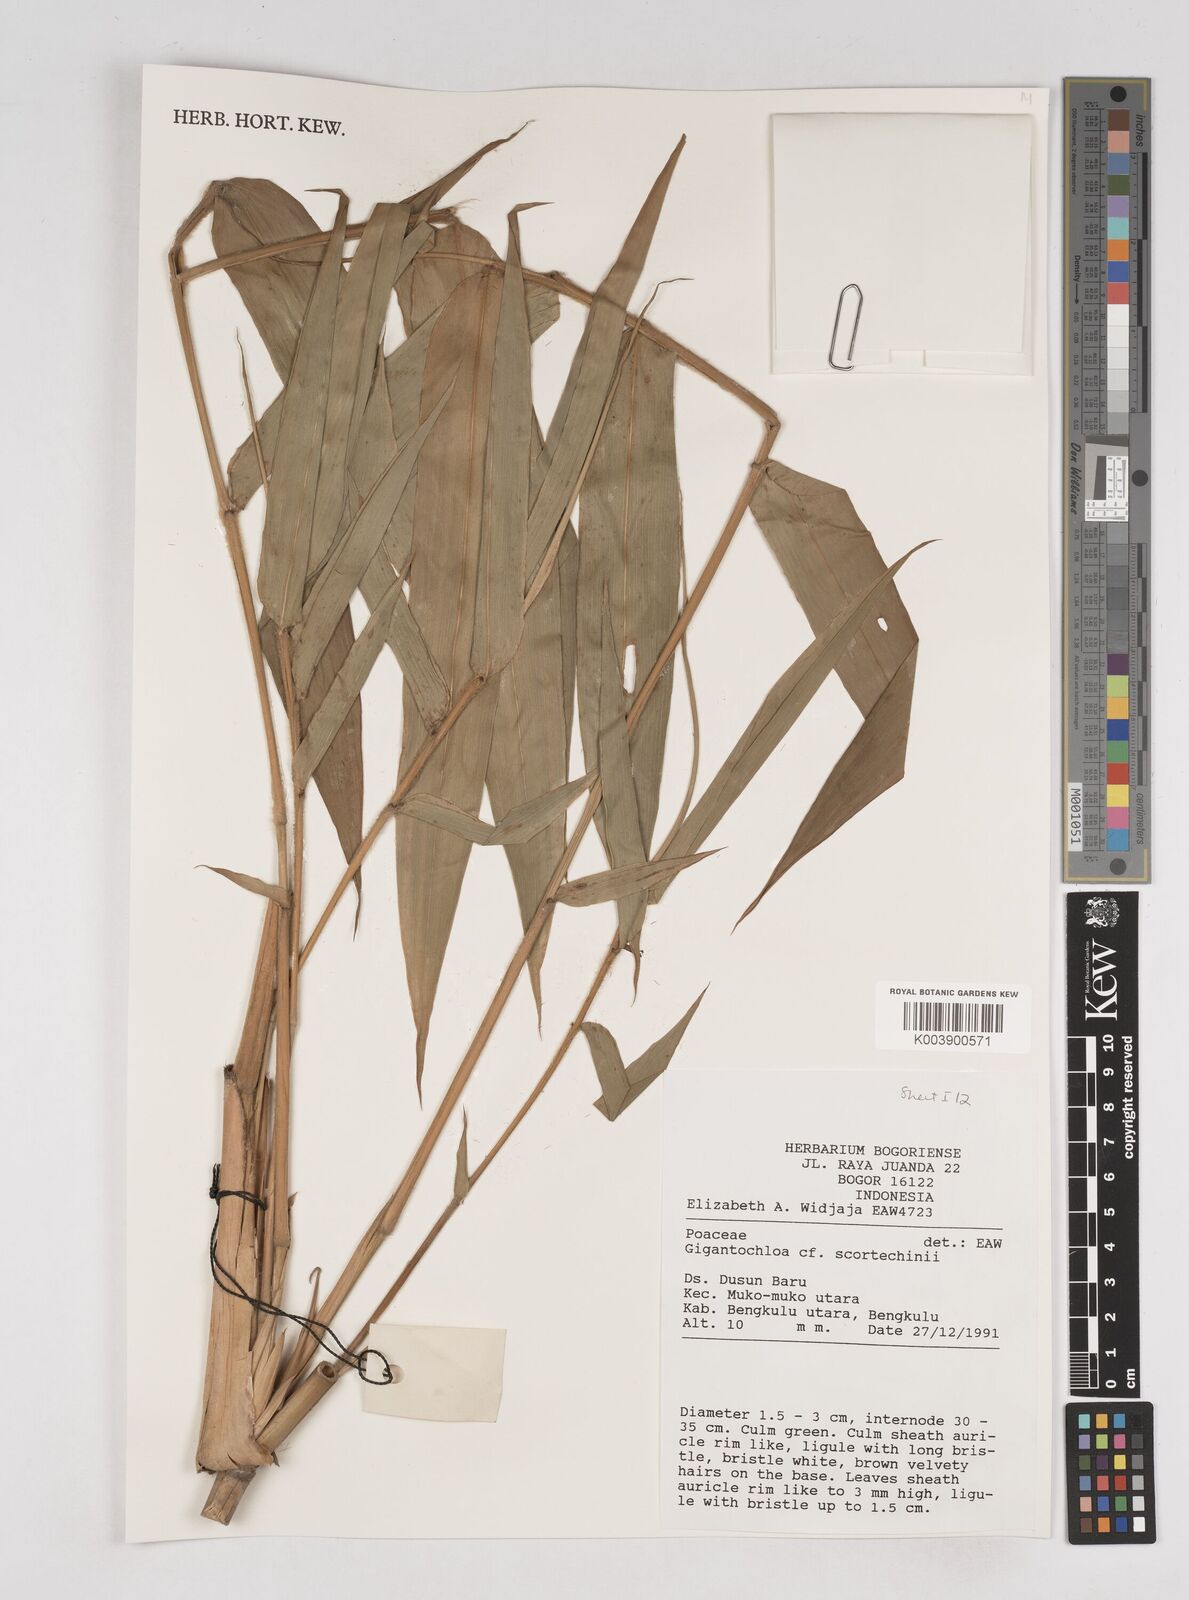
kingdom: Plantae
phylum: Tracheophyta
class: Liliopsida
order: Poales
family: Poaceae
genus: Gigantochloa
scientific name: Gigantochloa scortechinii
